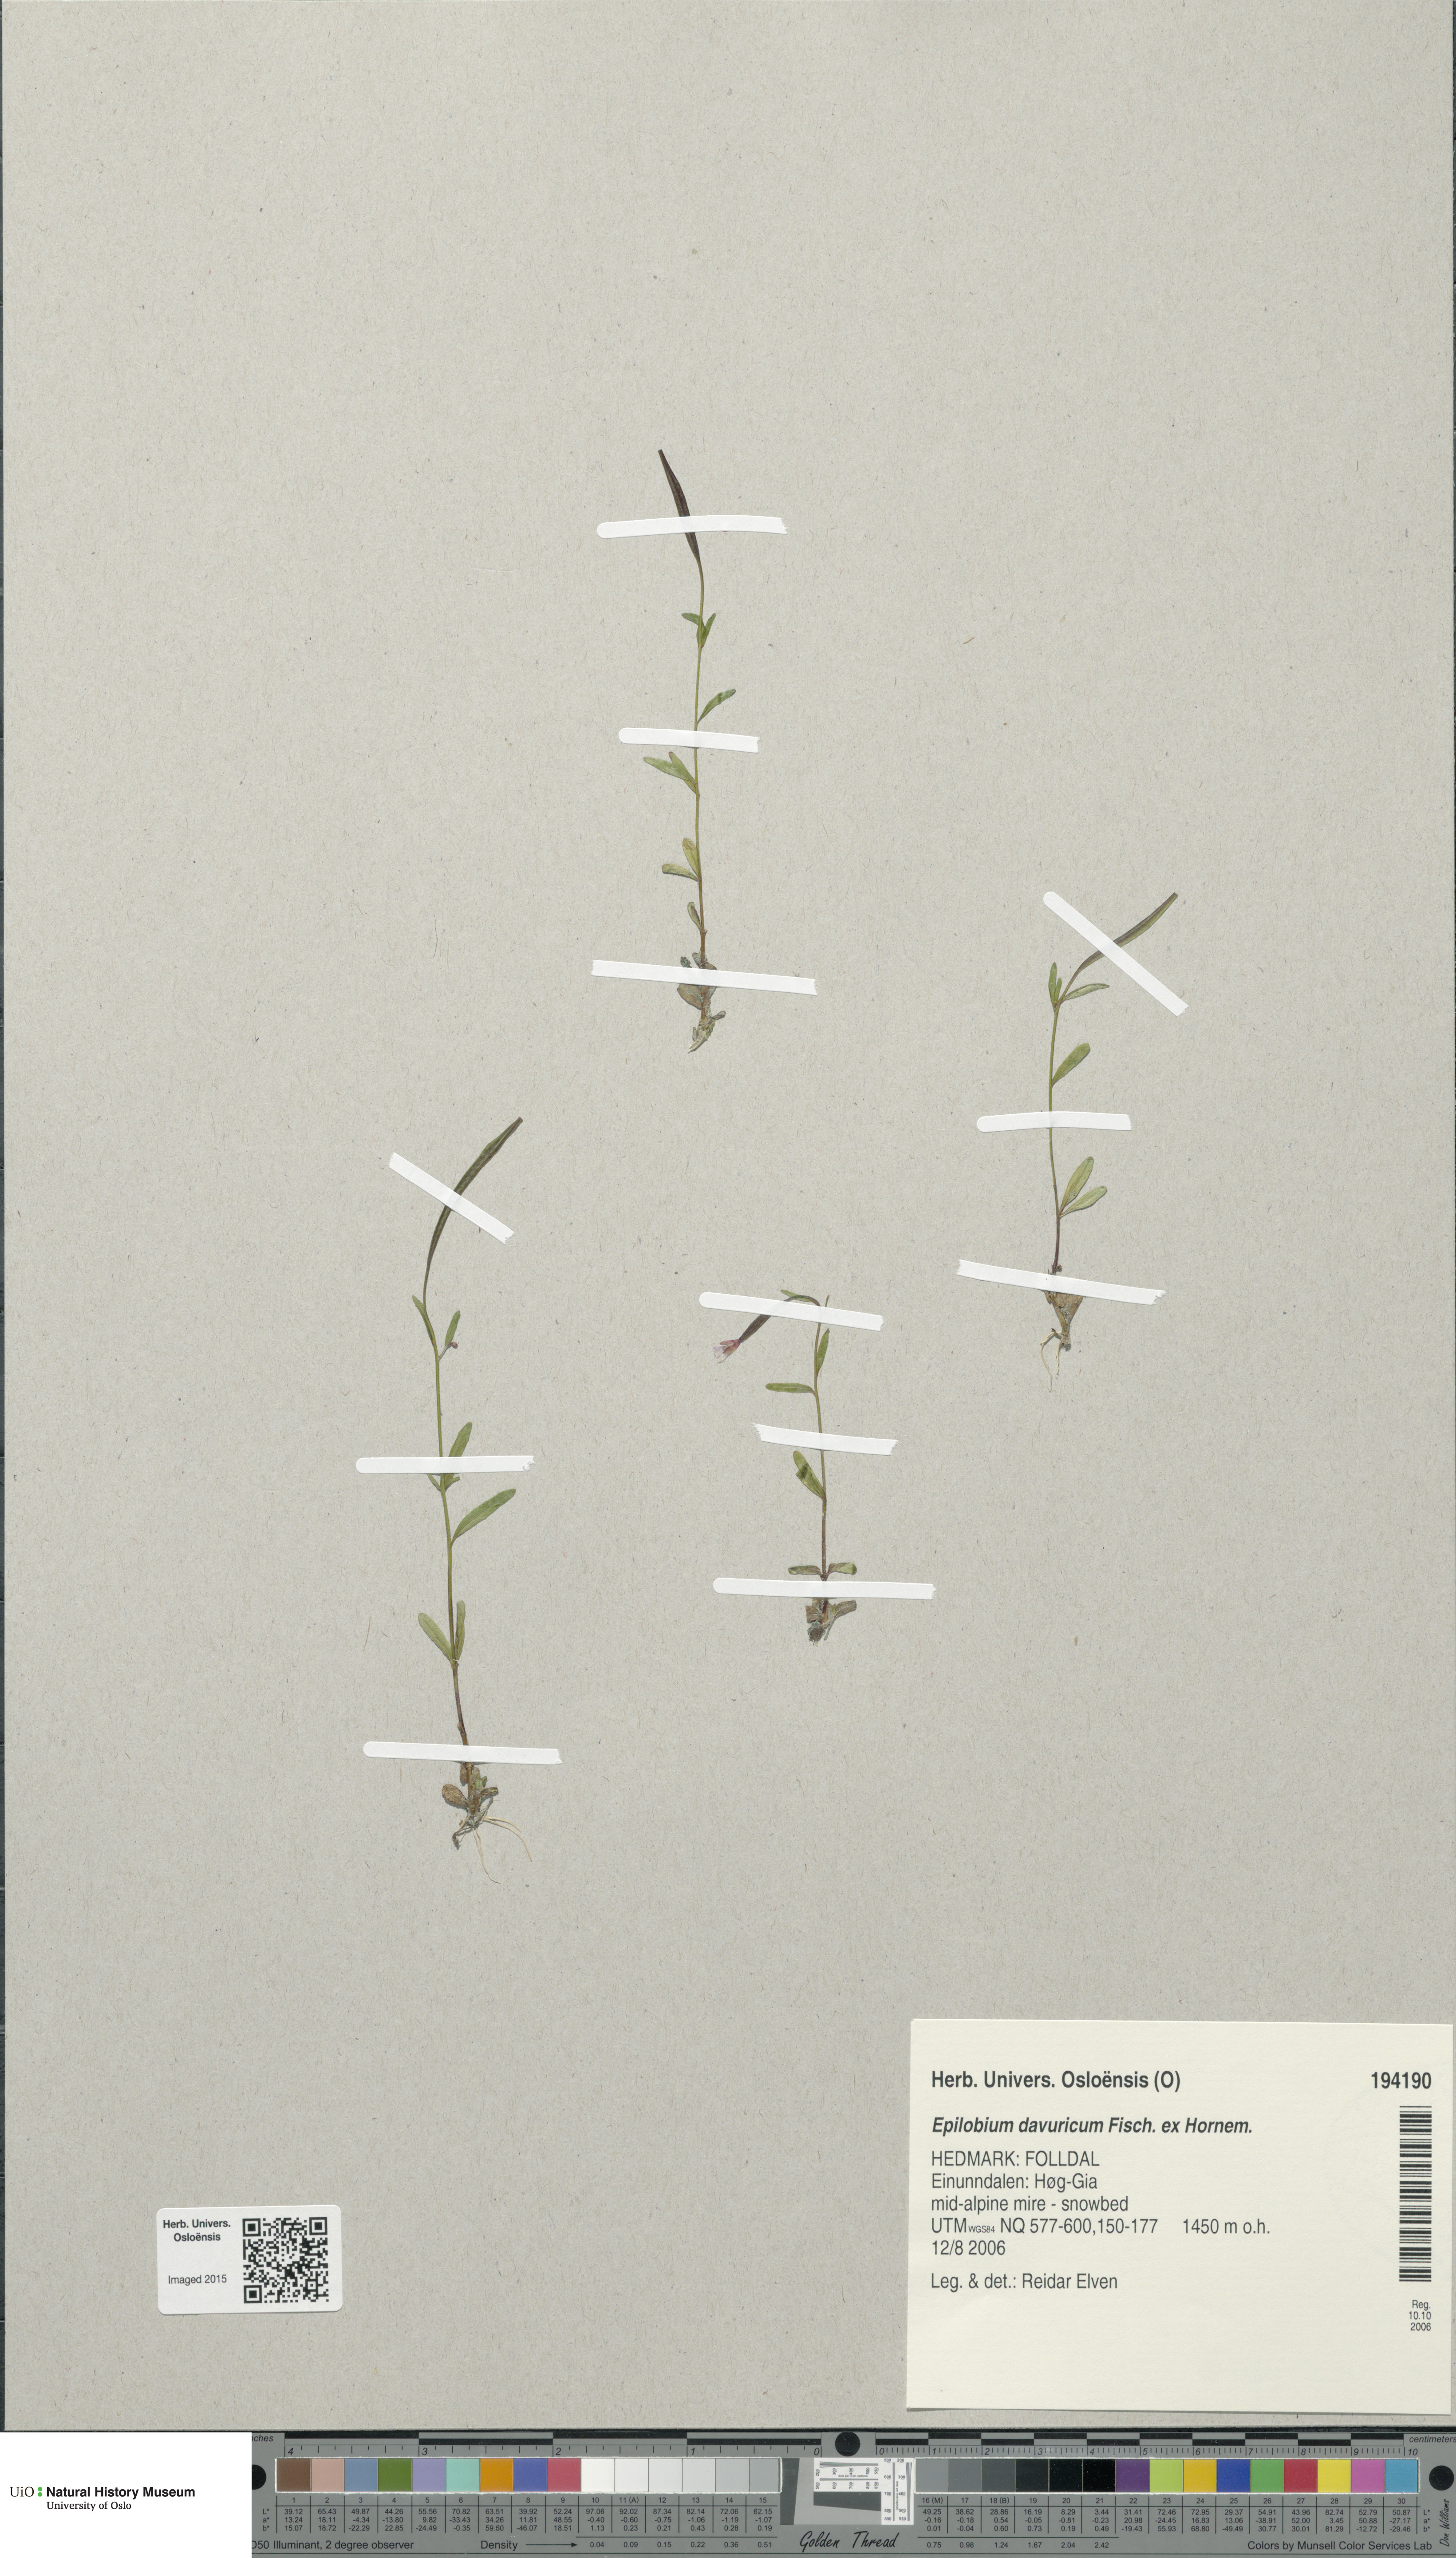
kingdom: Plantae
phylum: Tracheophyta
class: Magnoliopsida
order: Myrtales
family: Onagraceae
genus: Epilobium
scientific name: Epilobium davuricum
